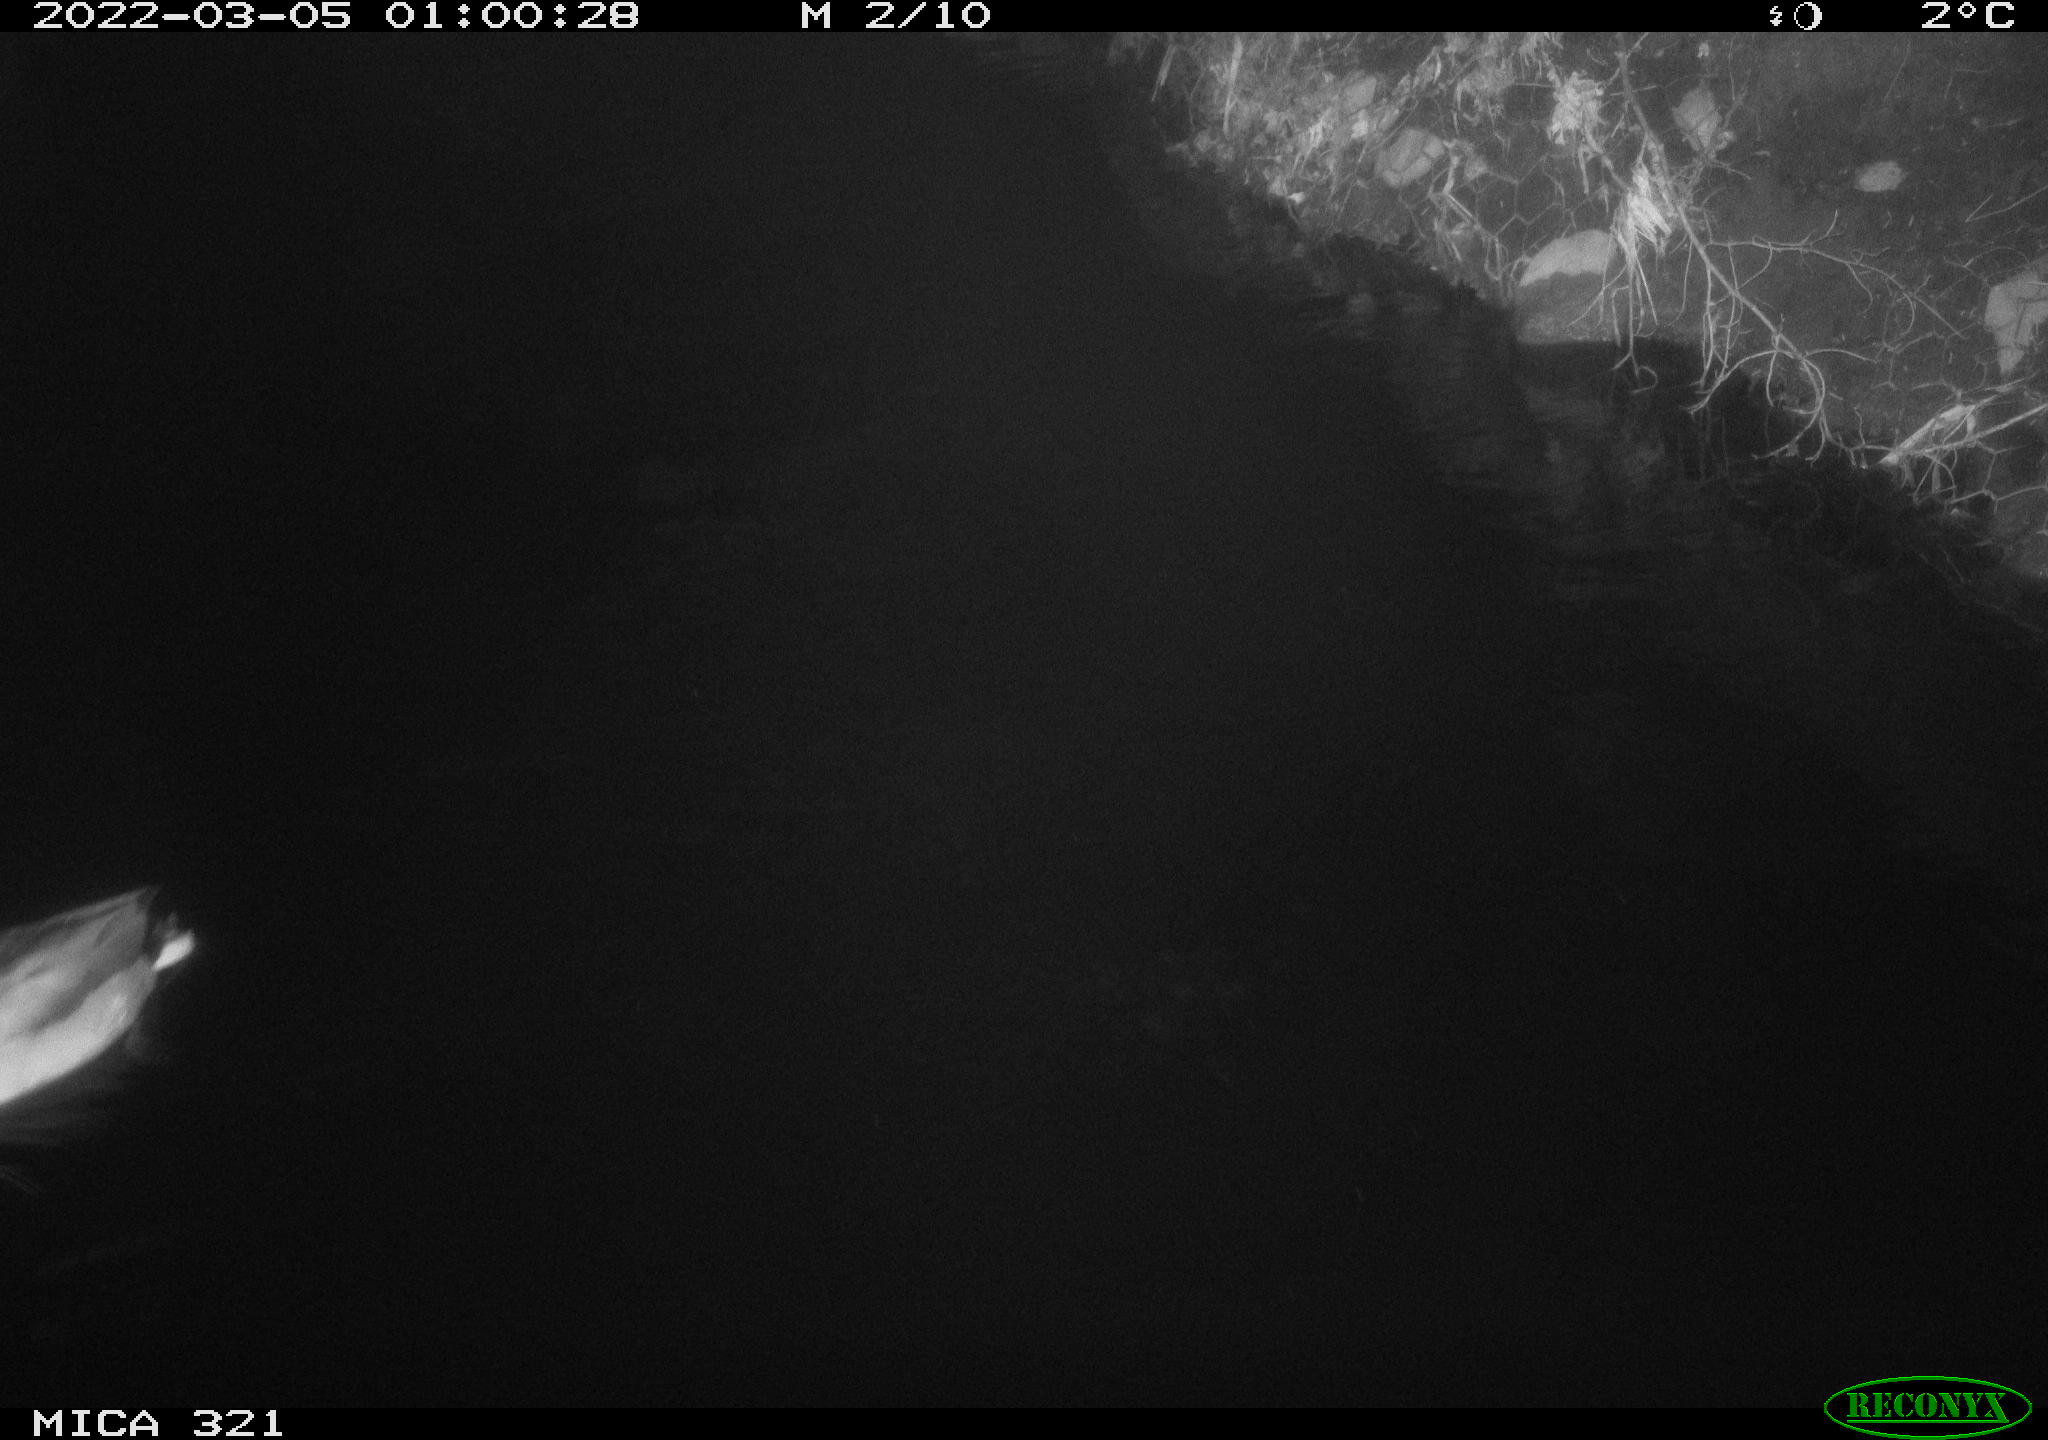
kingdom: Animalia
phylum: Chordata
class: Aves
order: Anseriformes
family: Anatidae
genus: Anas
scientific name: Anas platyrhynchos
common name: Mallard
